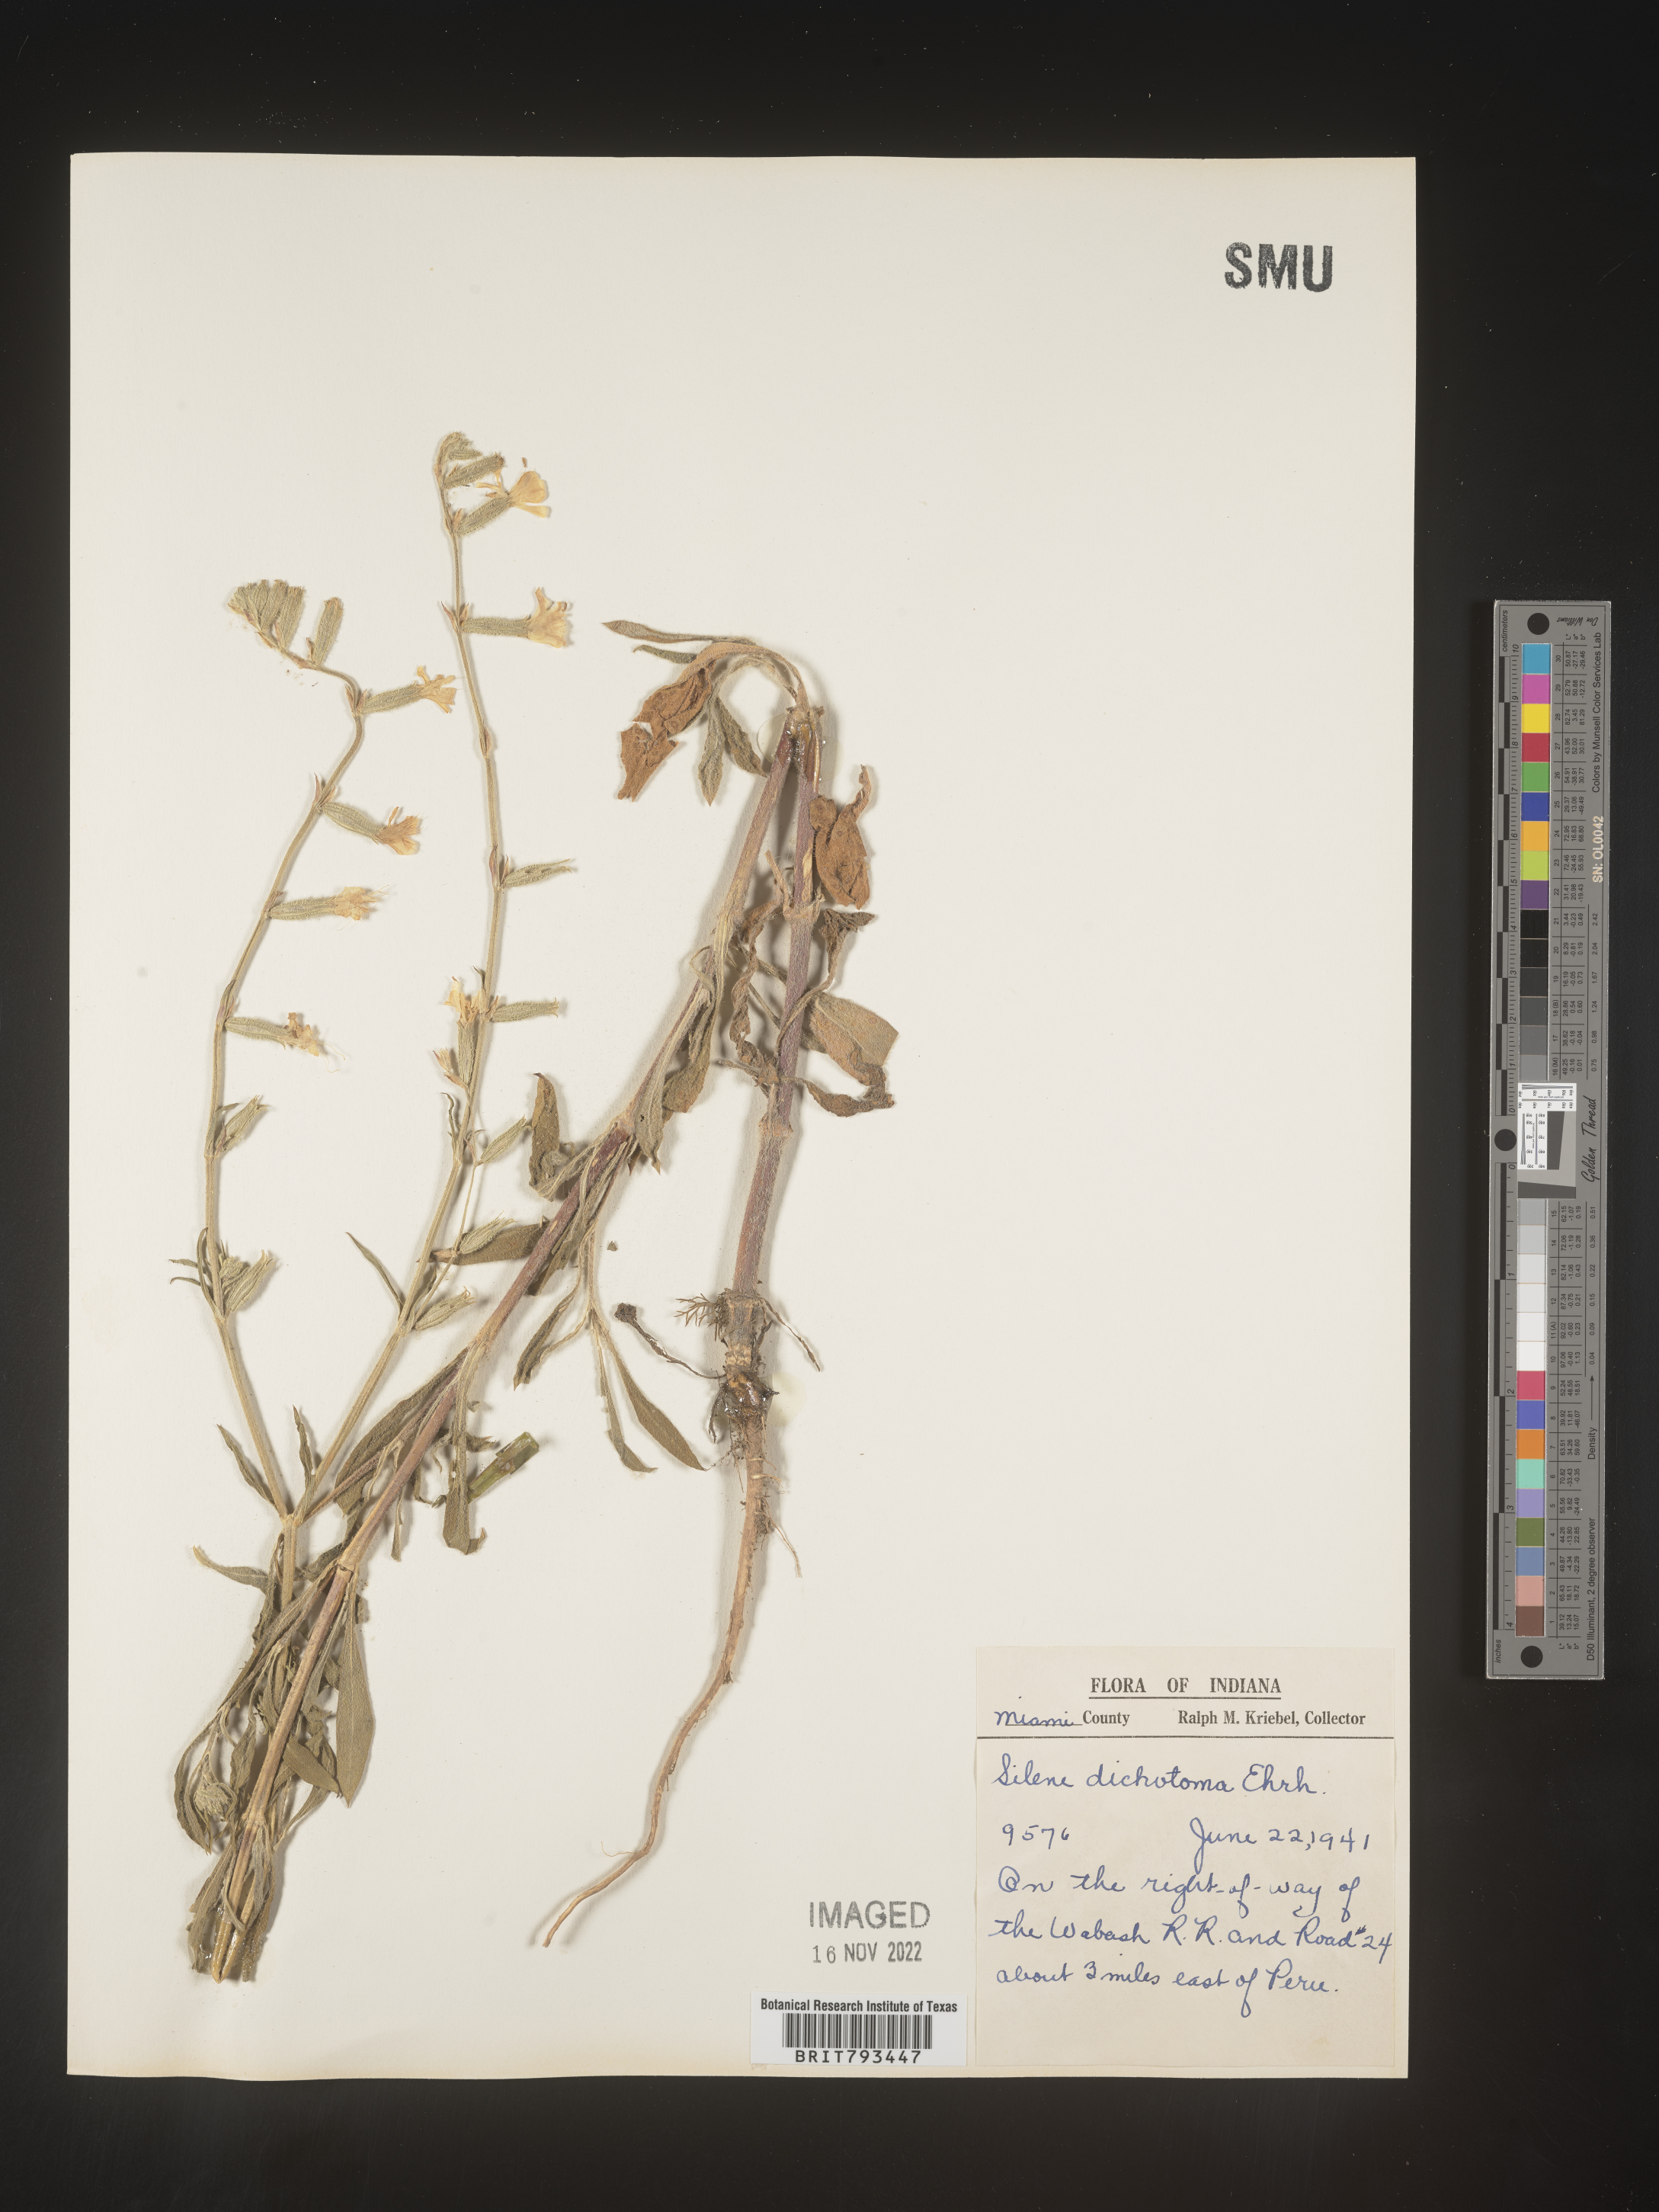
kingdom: Plantae
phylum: Tracheophyta
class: Magnoliopsida
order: Caryophyllales
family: Caryophyllaceae
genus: Silene
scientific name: Silene dichotoma
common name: Forked catchfly
